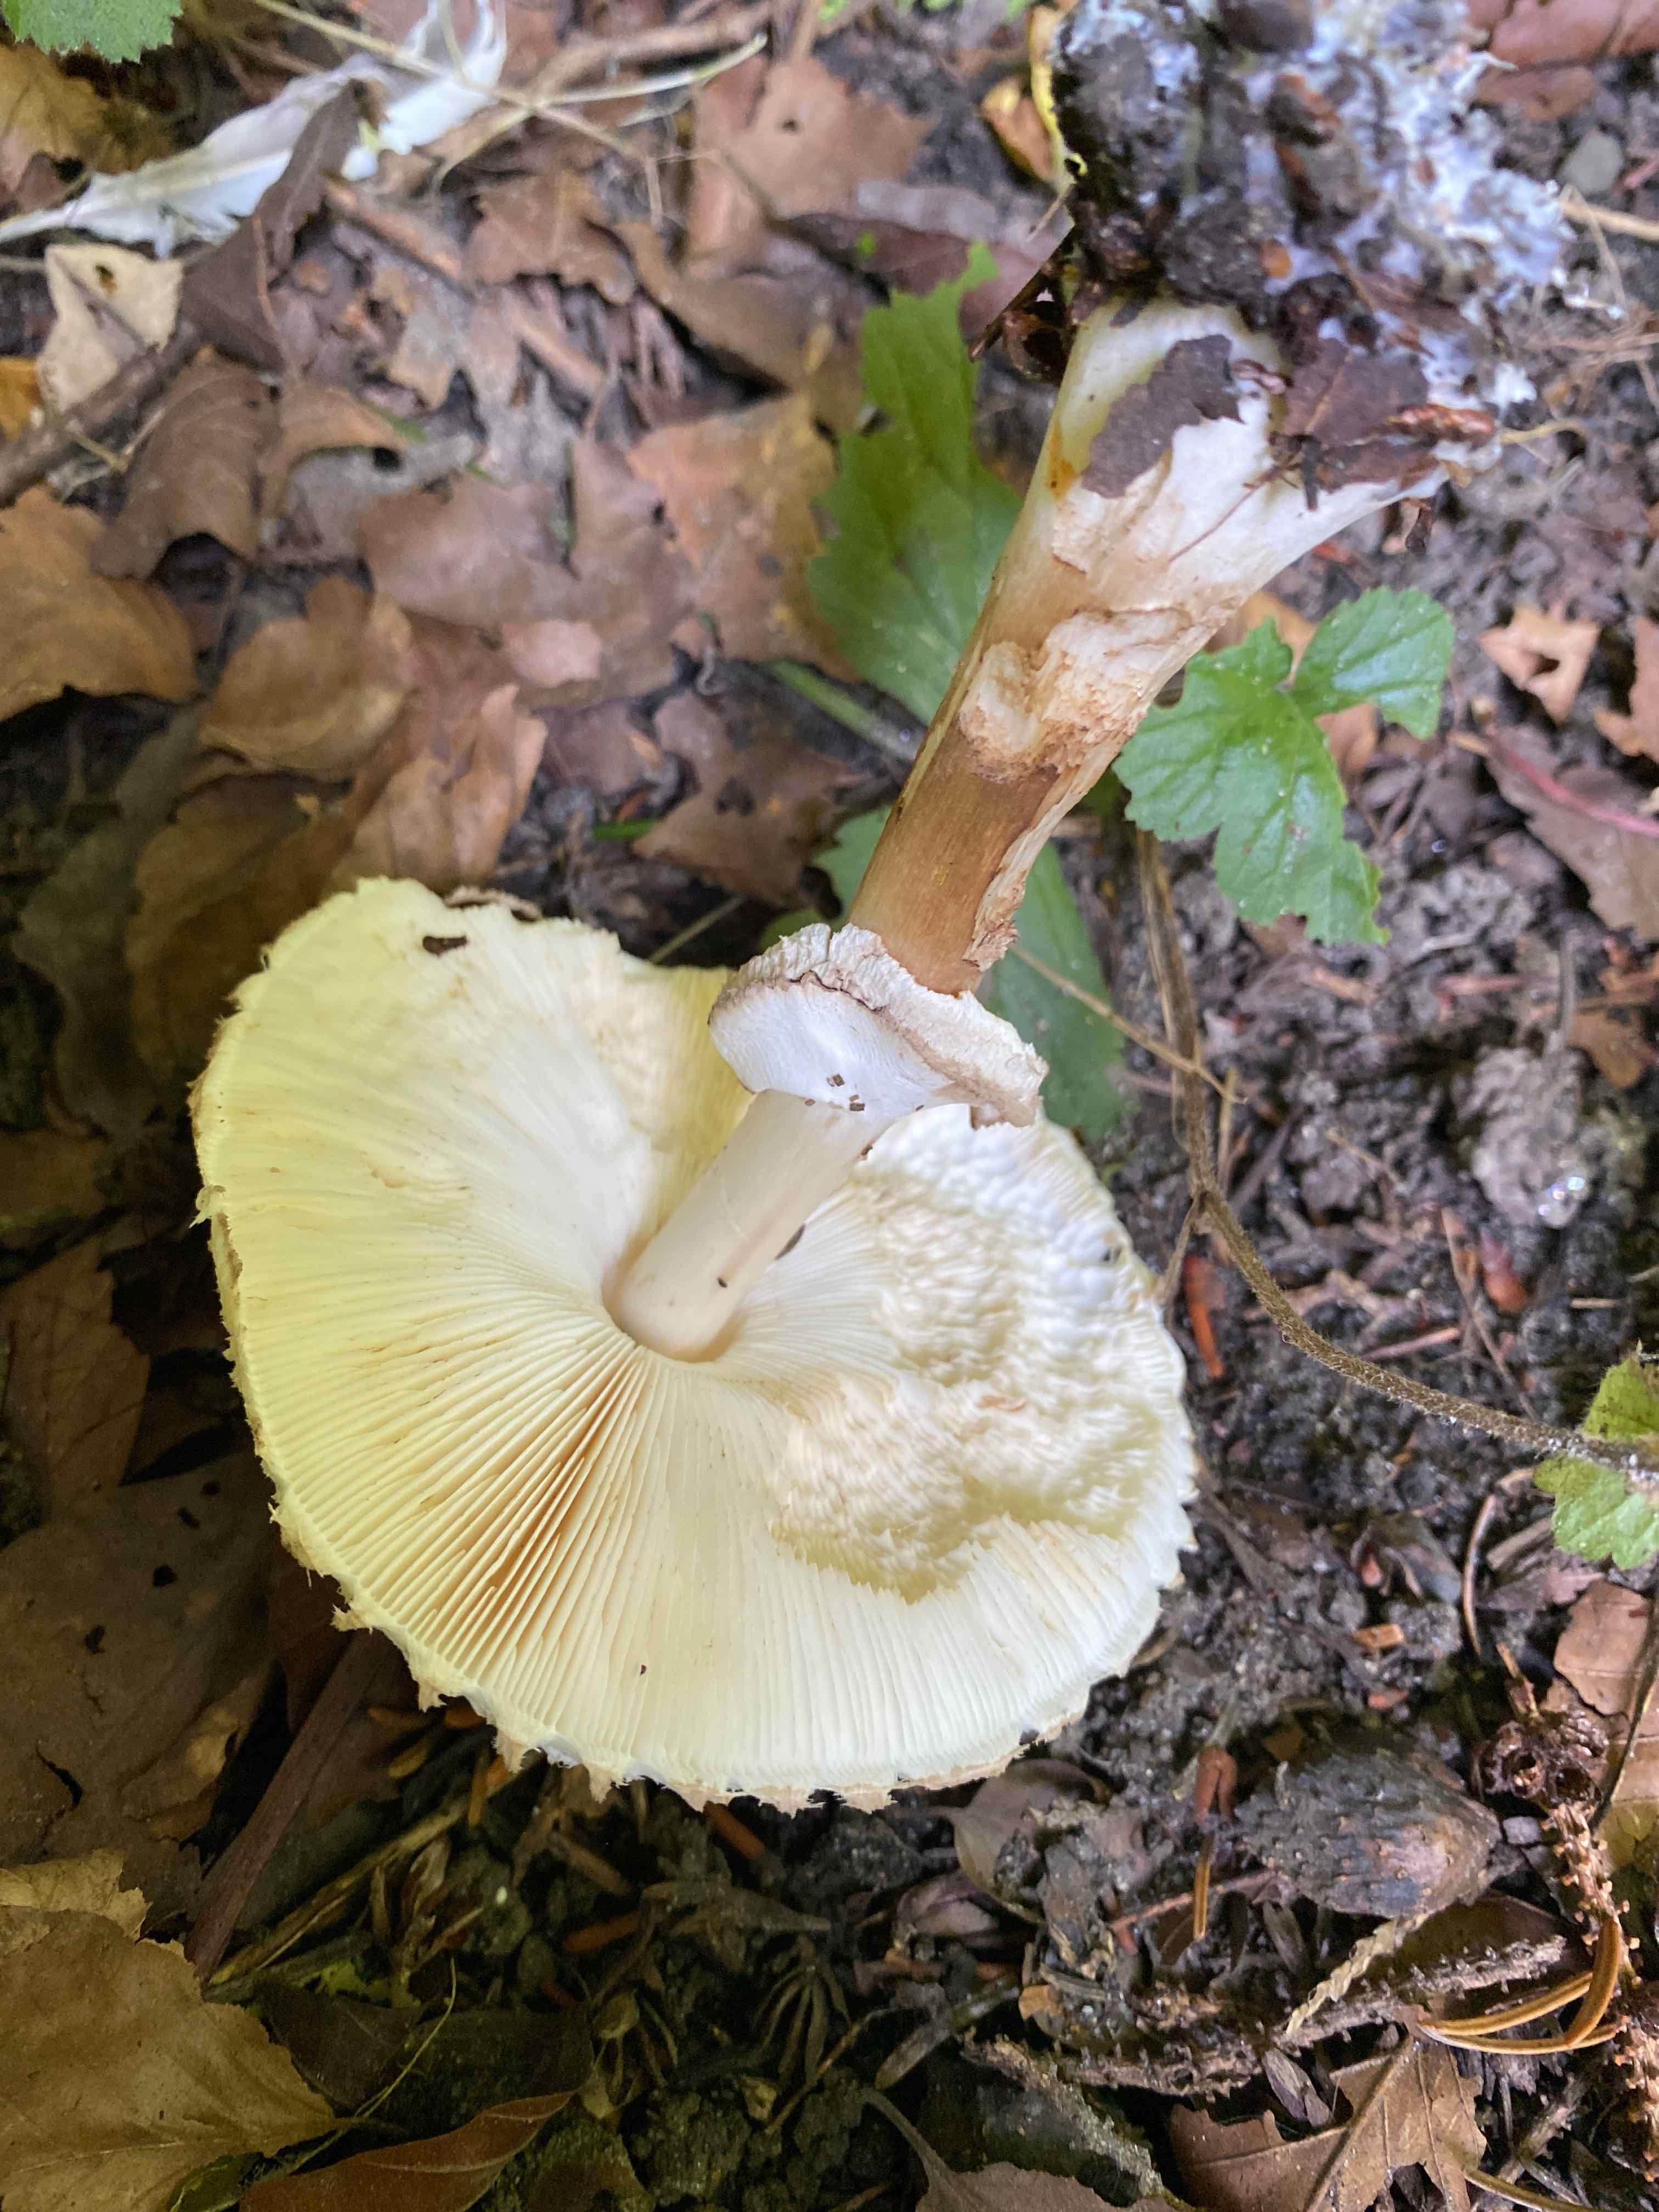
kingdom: Fungi
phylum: Basidiomycota
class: Agaricomycetes
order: Agaricales
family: Agaricaceae
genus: Chlorophyllum
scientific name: Chlorophyllum brunneum
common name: giftig rabarberhat
